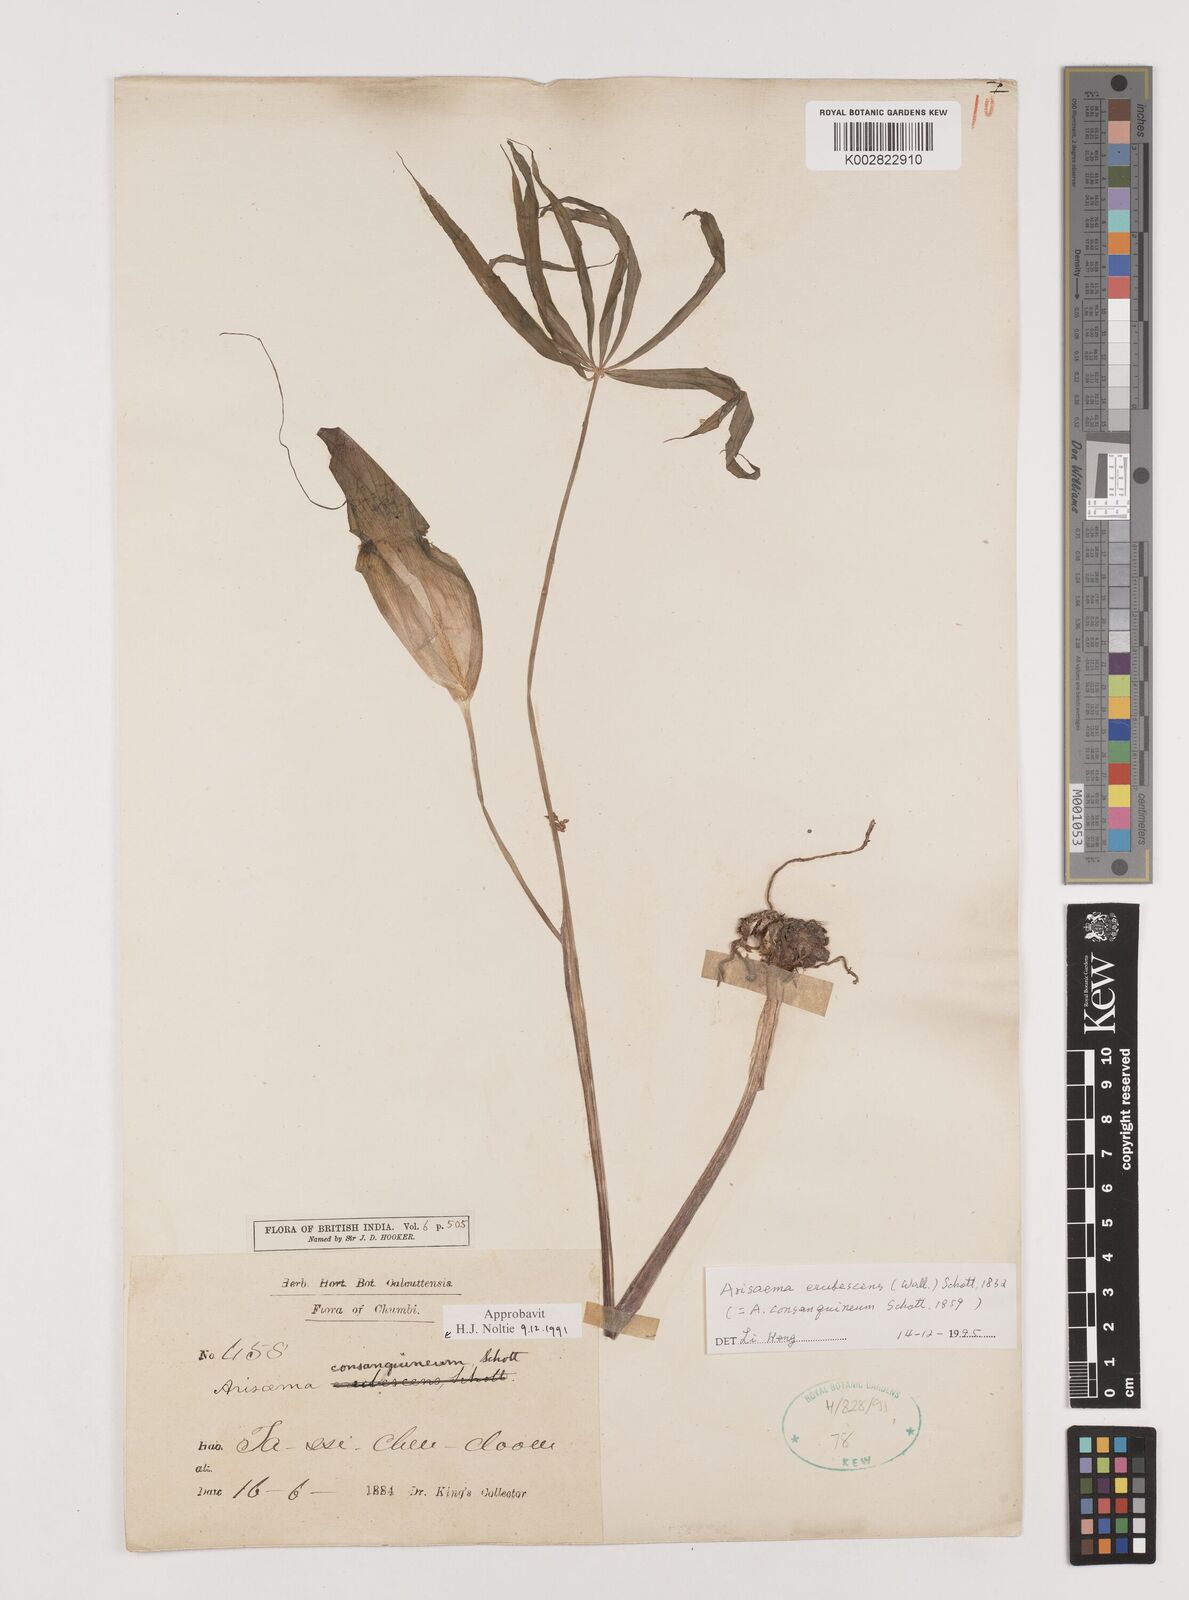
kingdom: Plantae
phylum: Tracheophyta
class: Liliopsida
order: Alismatales
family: Araceae
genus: Arisaema
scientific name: Arisaema erubescens
